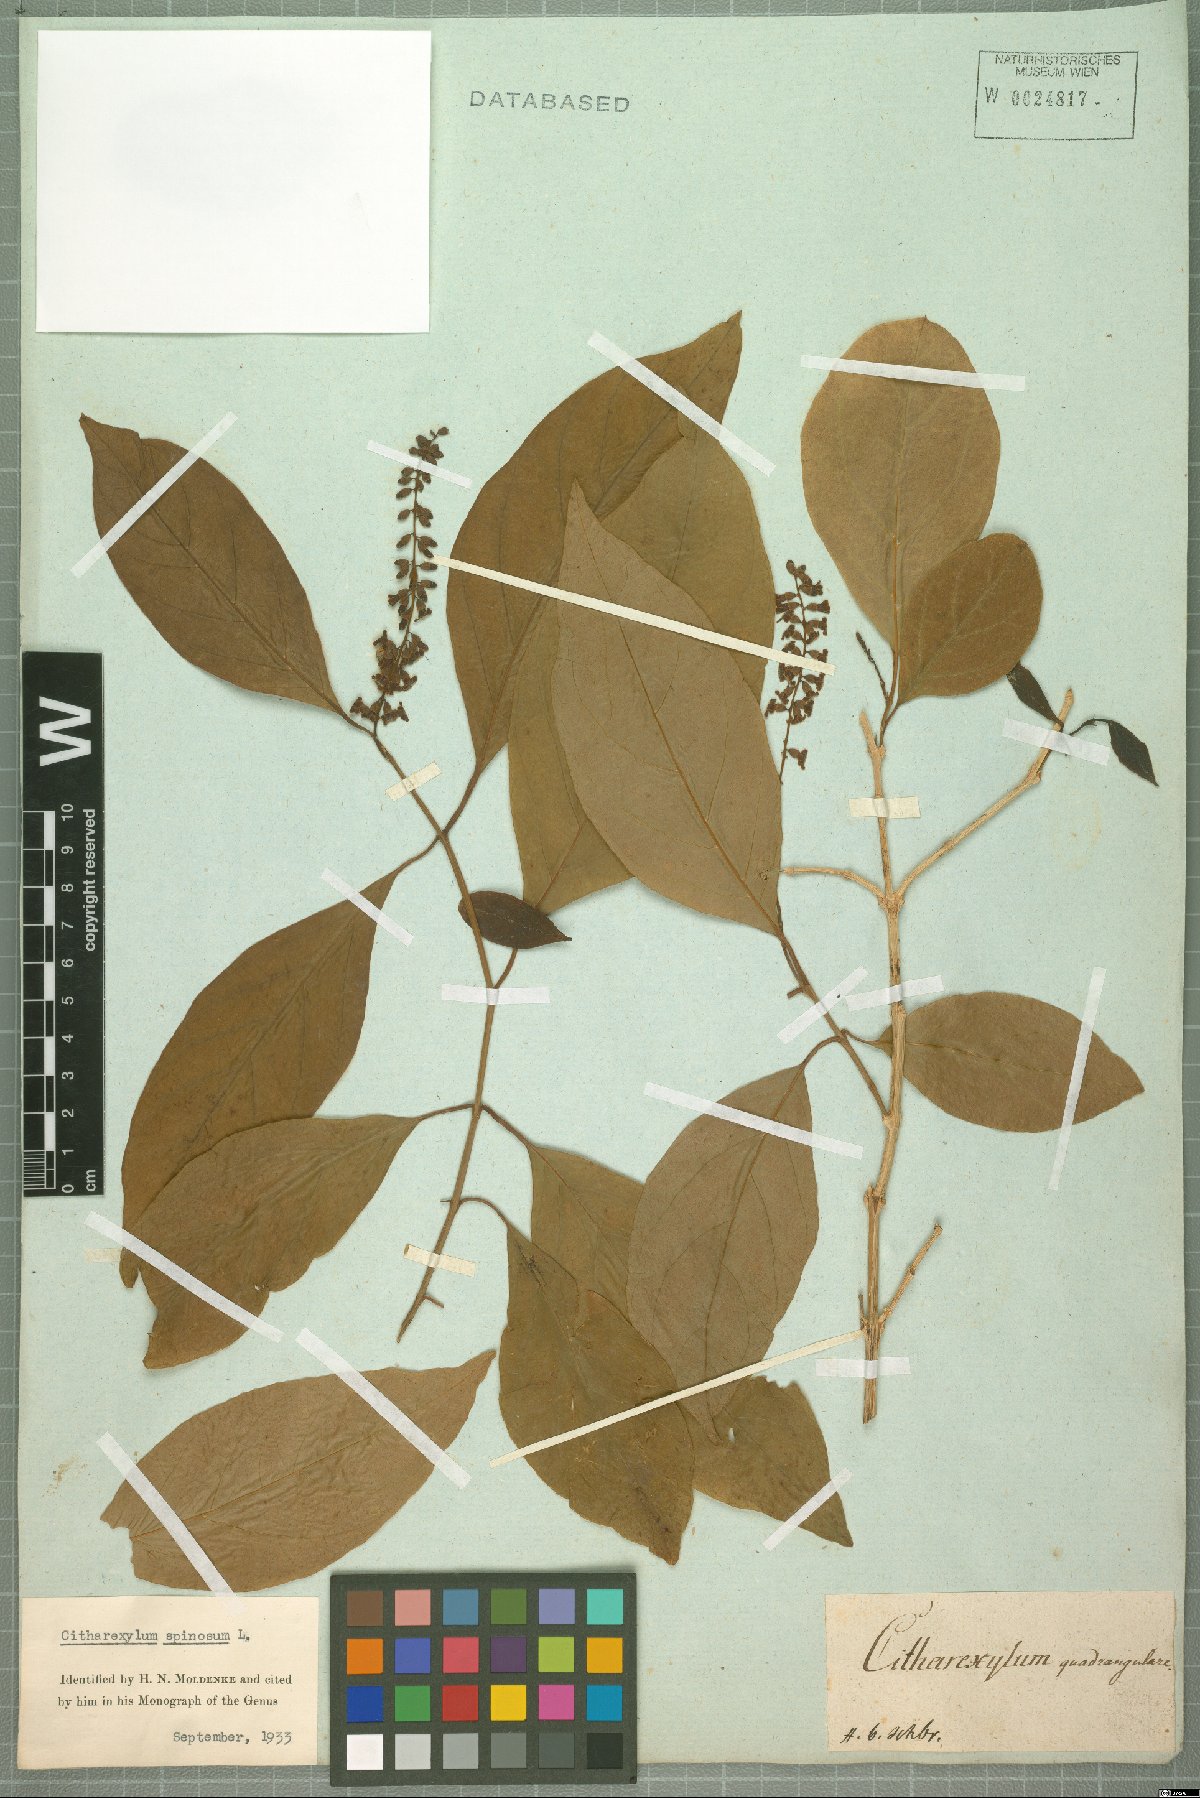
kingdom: Plantae
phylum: Tracheophyta
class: Magnoliopsida
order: Lamiales
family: Verbenaceae
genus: Citharexylum
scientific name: Citharexylum spinosum
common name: Fiddlewood
